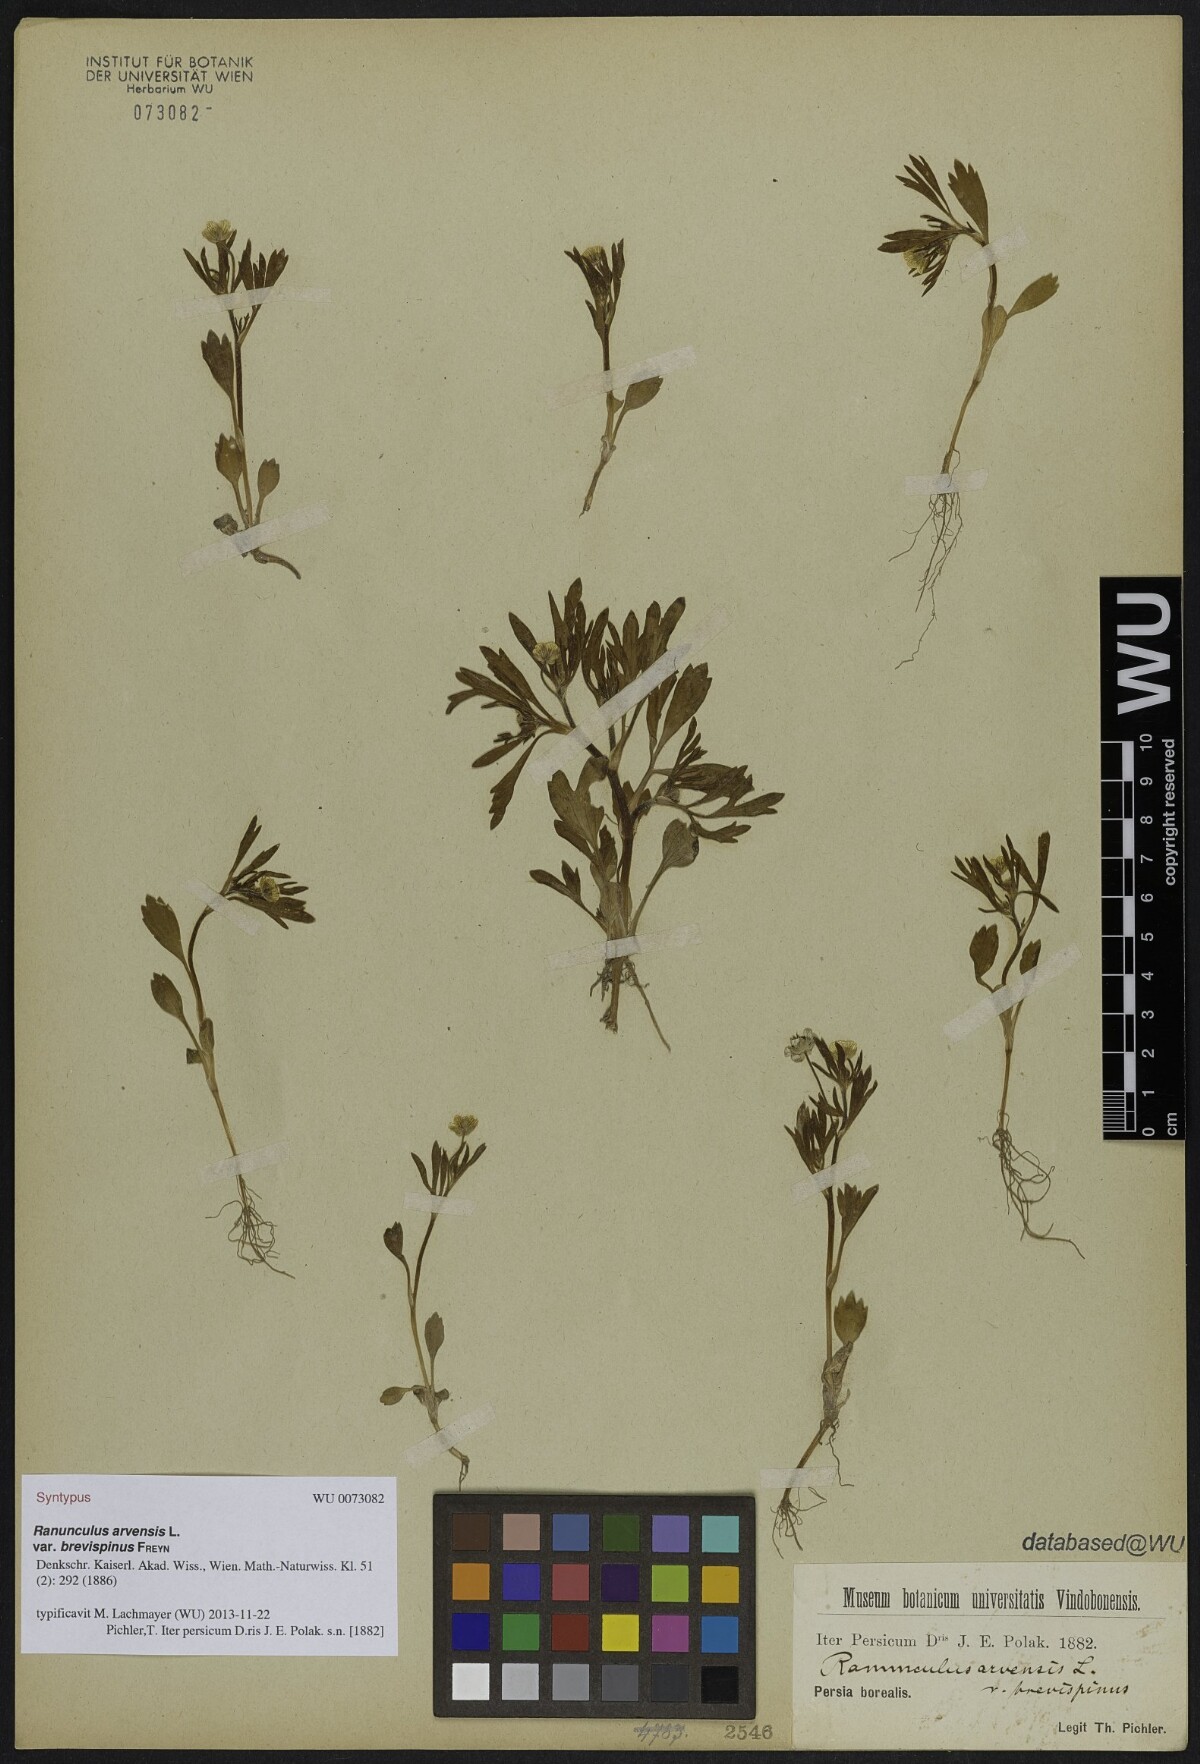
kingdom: Plantae
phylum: Tracheophyta
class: Magnoliopsida
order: Ranunculales
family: Ranunculaceae
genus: Ranunculus
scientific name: Ranunculus arvensis
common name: Corn buttercup
